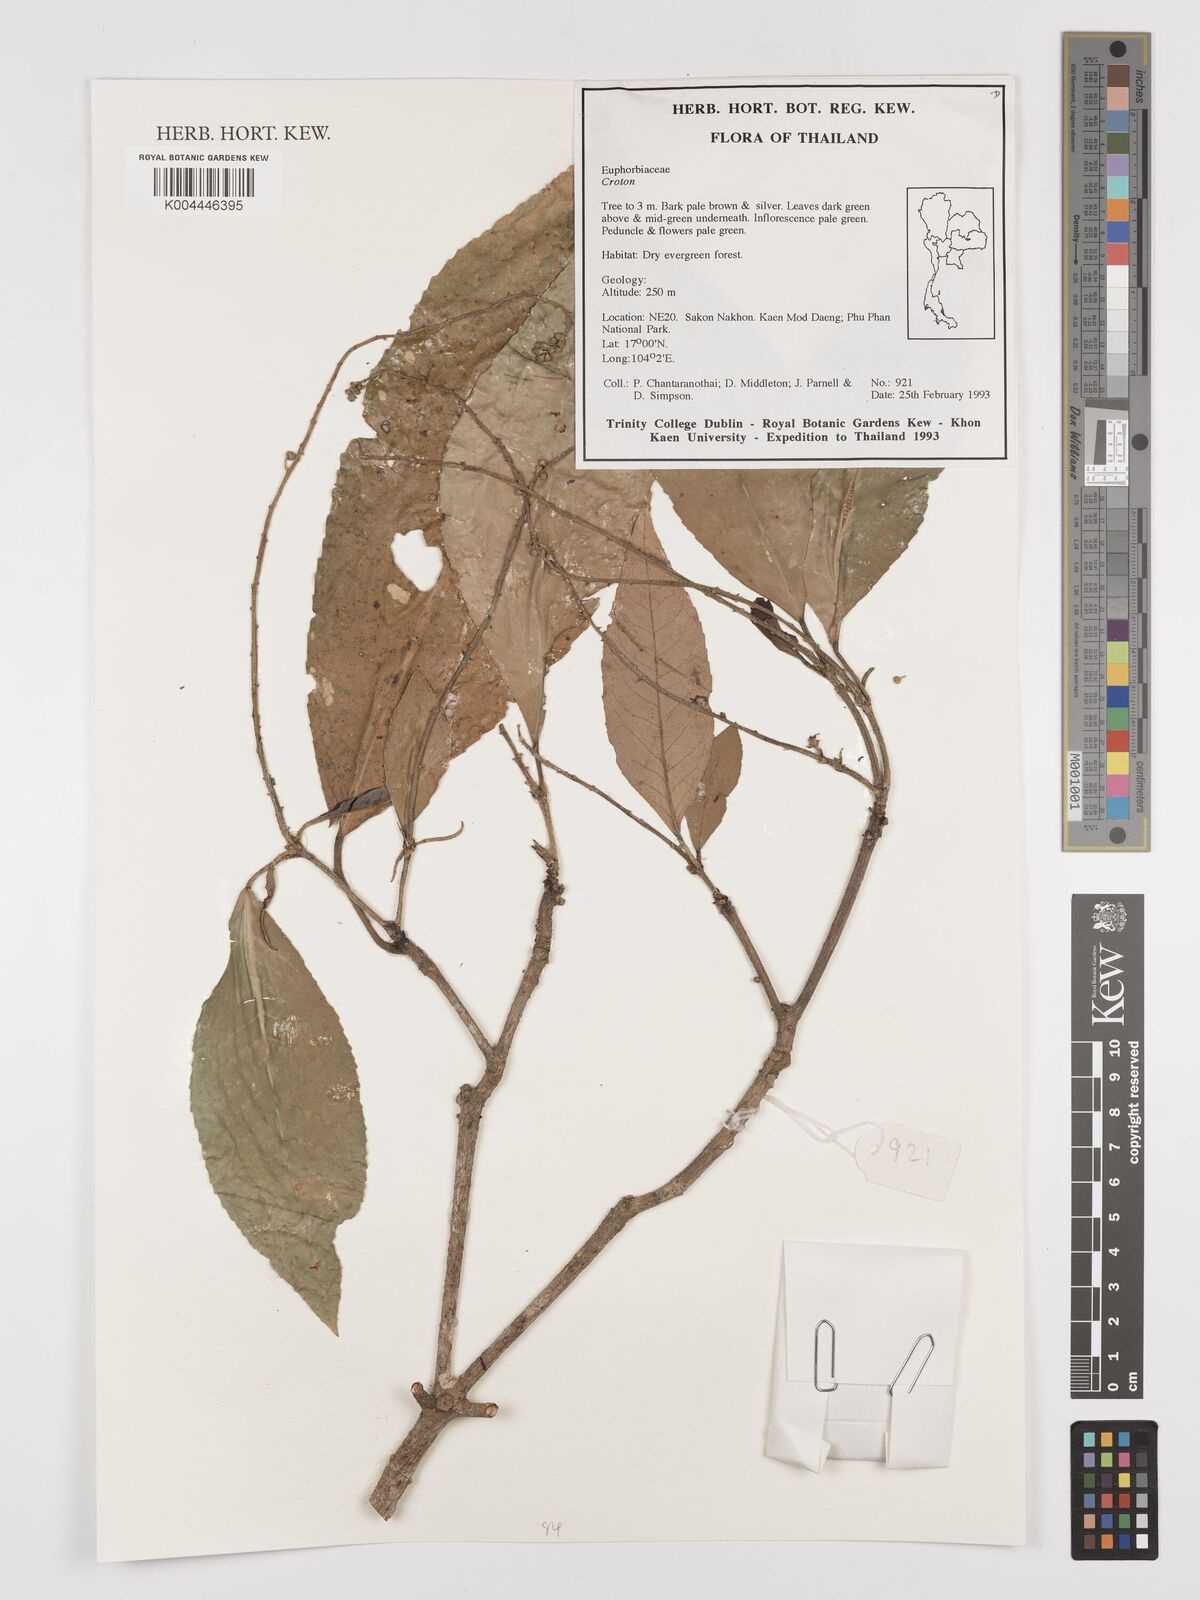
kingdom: Plantae
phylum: Tracheophyta
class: Magnoliopsida
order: Malpighiales
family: Euphorbiaceae
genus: Croton
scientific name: Croton
